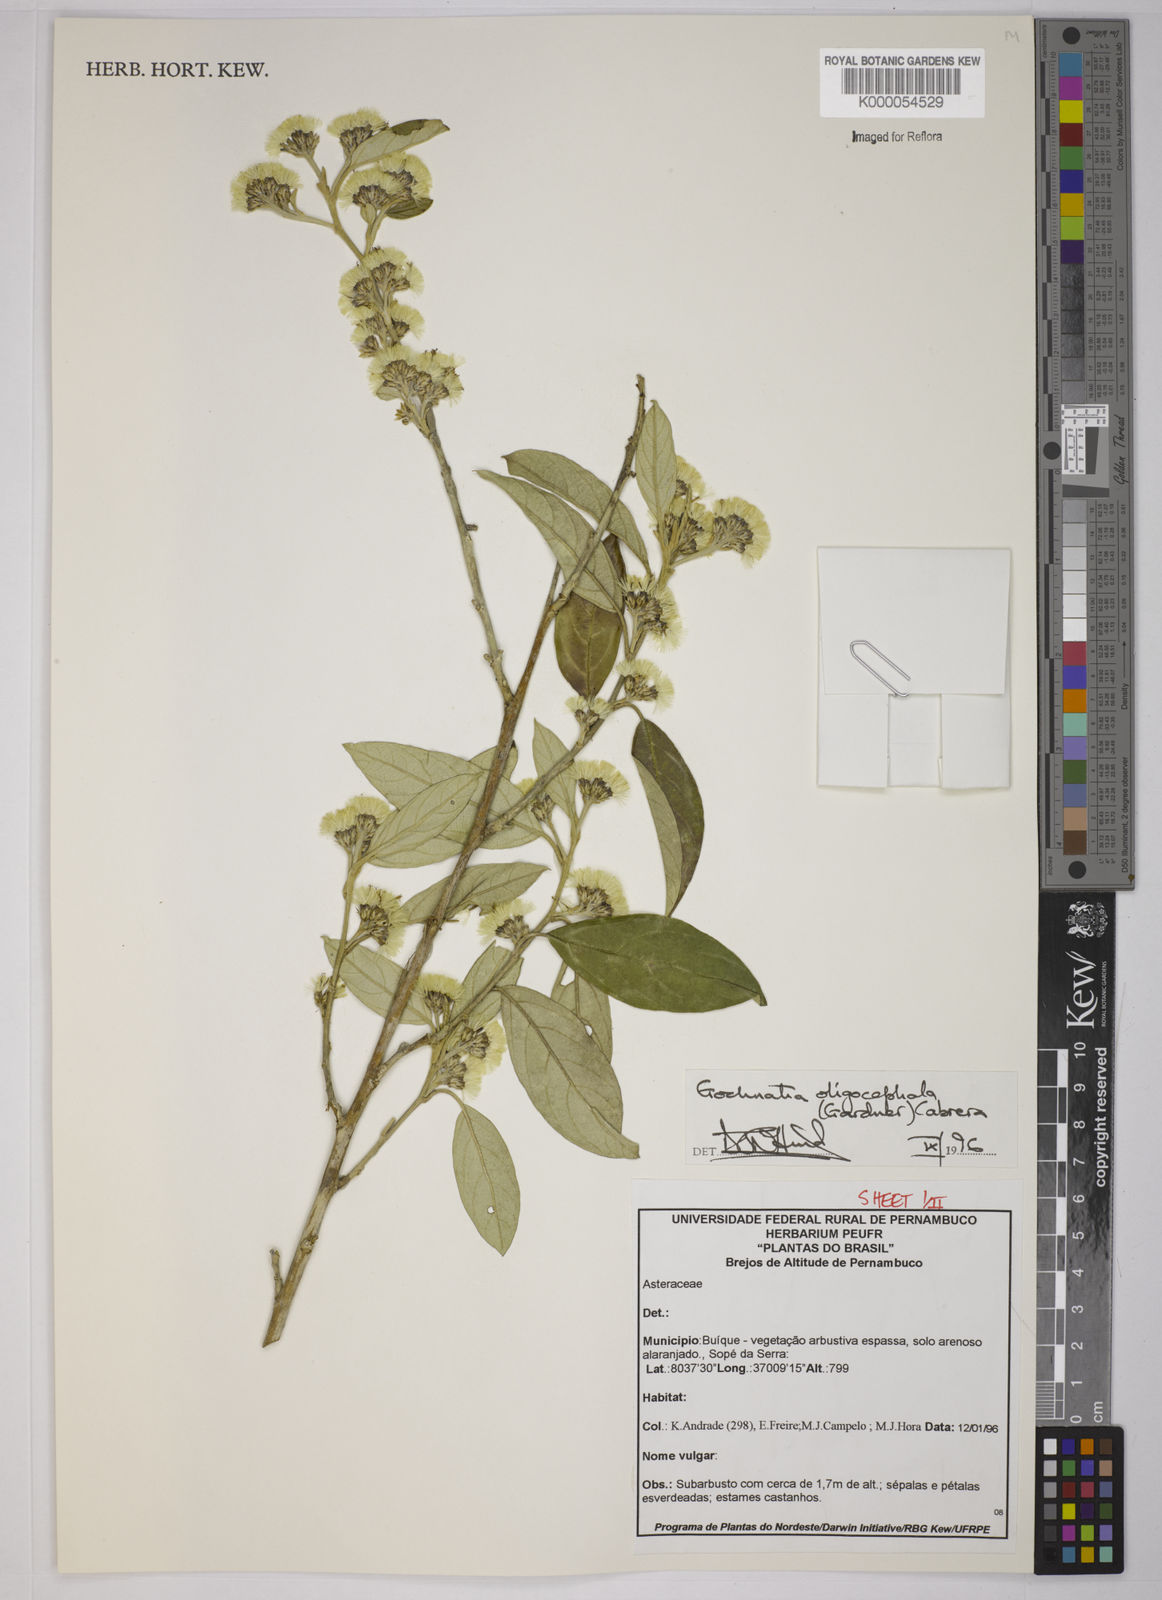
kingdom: Plantae
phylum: Tracheophyta
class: Magnoliopsida
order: Asterales
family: Asteraceae
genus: Moquiniastrum
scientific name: Moquiniastrum oligocephalum
